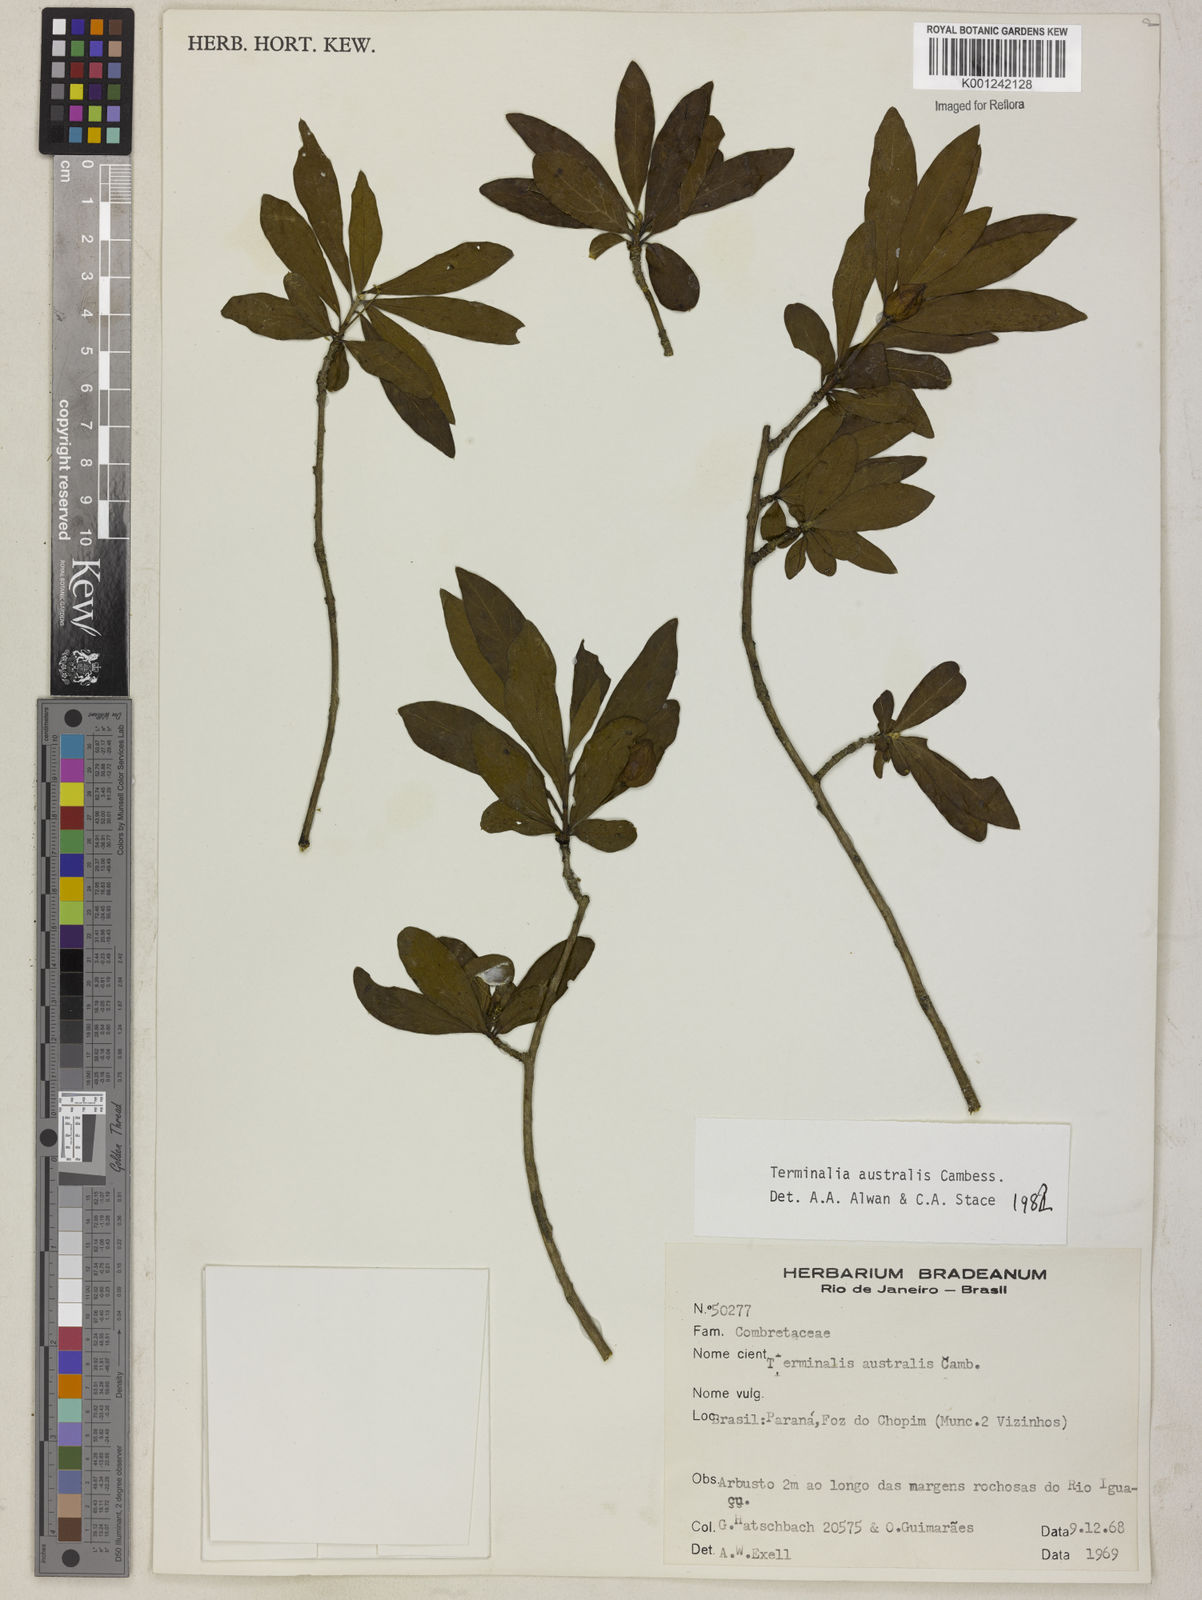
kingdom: Plantae
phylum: Tracheophyta
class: Magnoliopsida
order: Myrtales
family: Combretaceae
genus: Terminalia
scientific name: Terminalia australis
